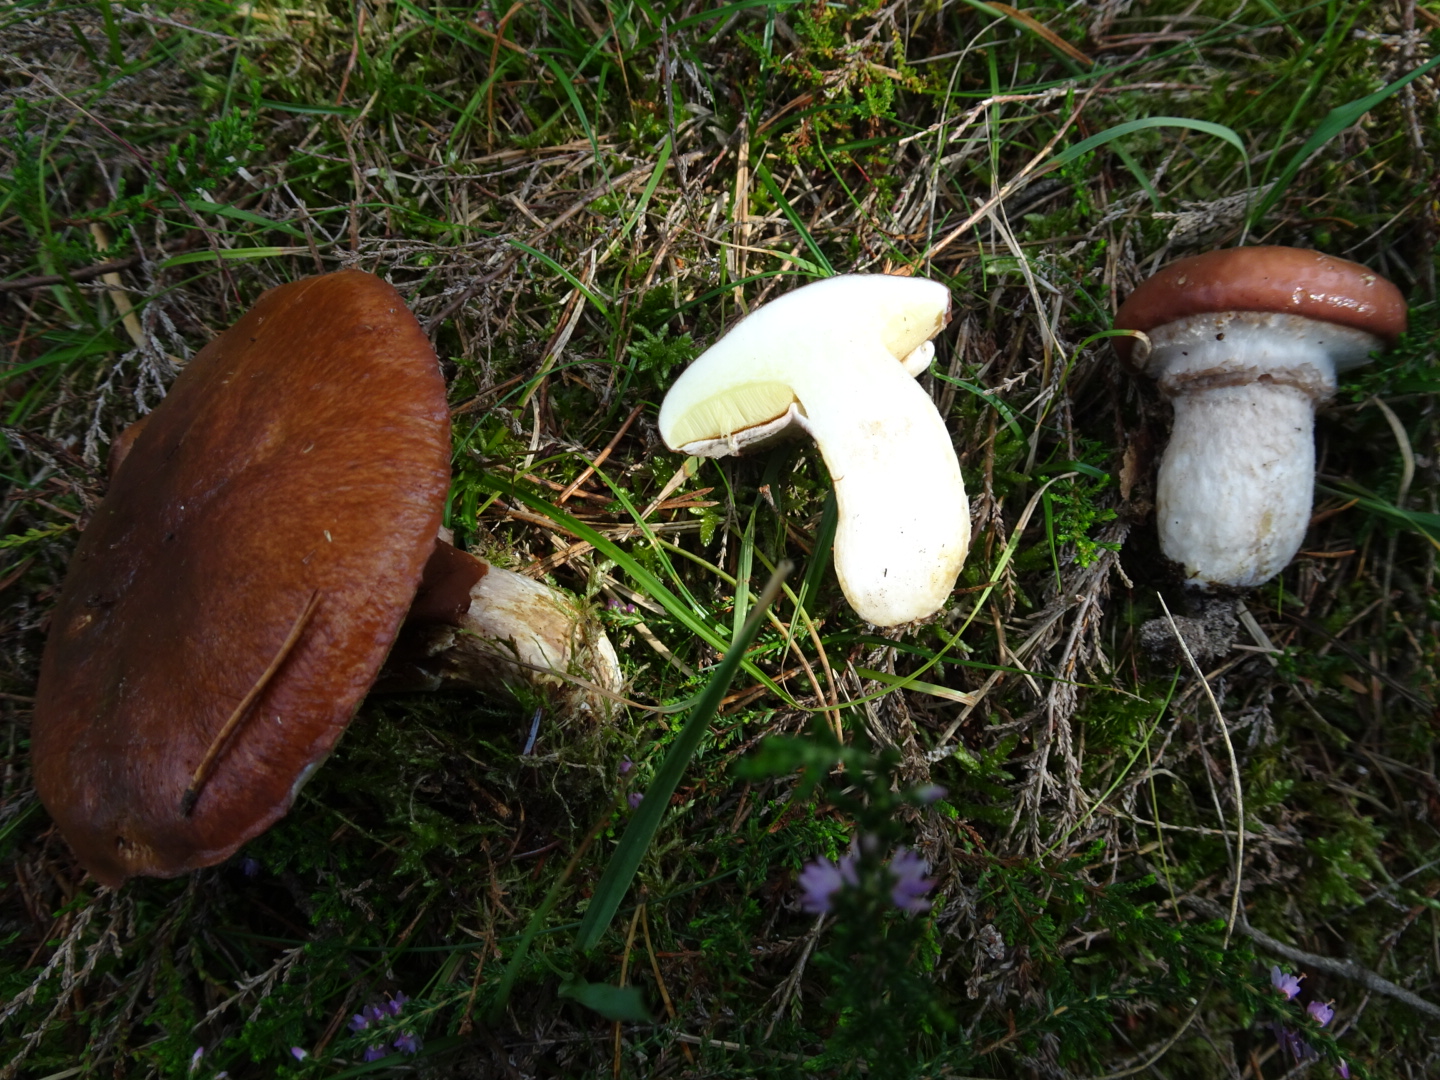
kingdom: Fungi
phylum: Basidiomycota
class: Agaricomycetes
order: Boletales
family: Suillaceae
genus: Suillus
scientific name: Suillus luteus
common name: brungul slimrørhat
